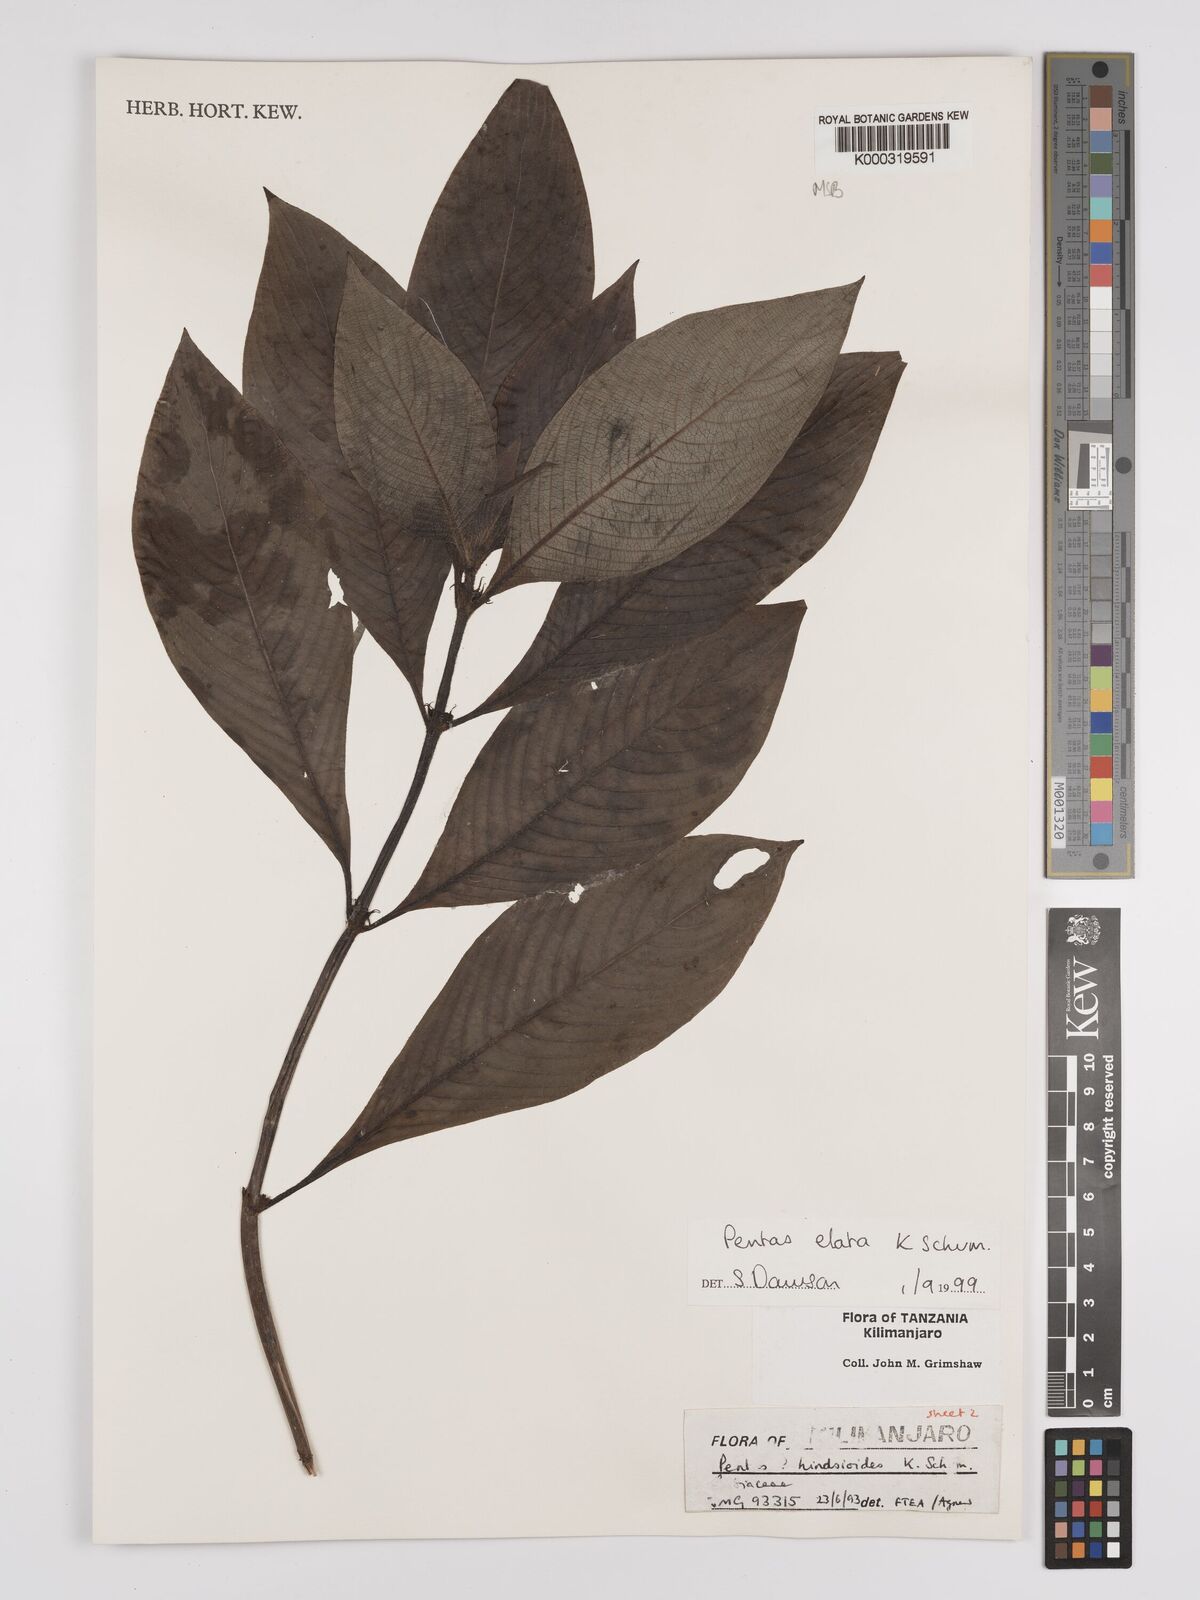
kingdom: Plantae
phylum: Tracheophyta
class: Magnoliopsida
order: Gentianales
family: Rubiaceae
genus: Phyllopentas
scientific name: Phyllopentas elata
